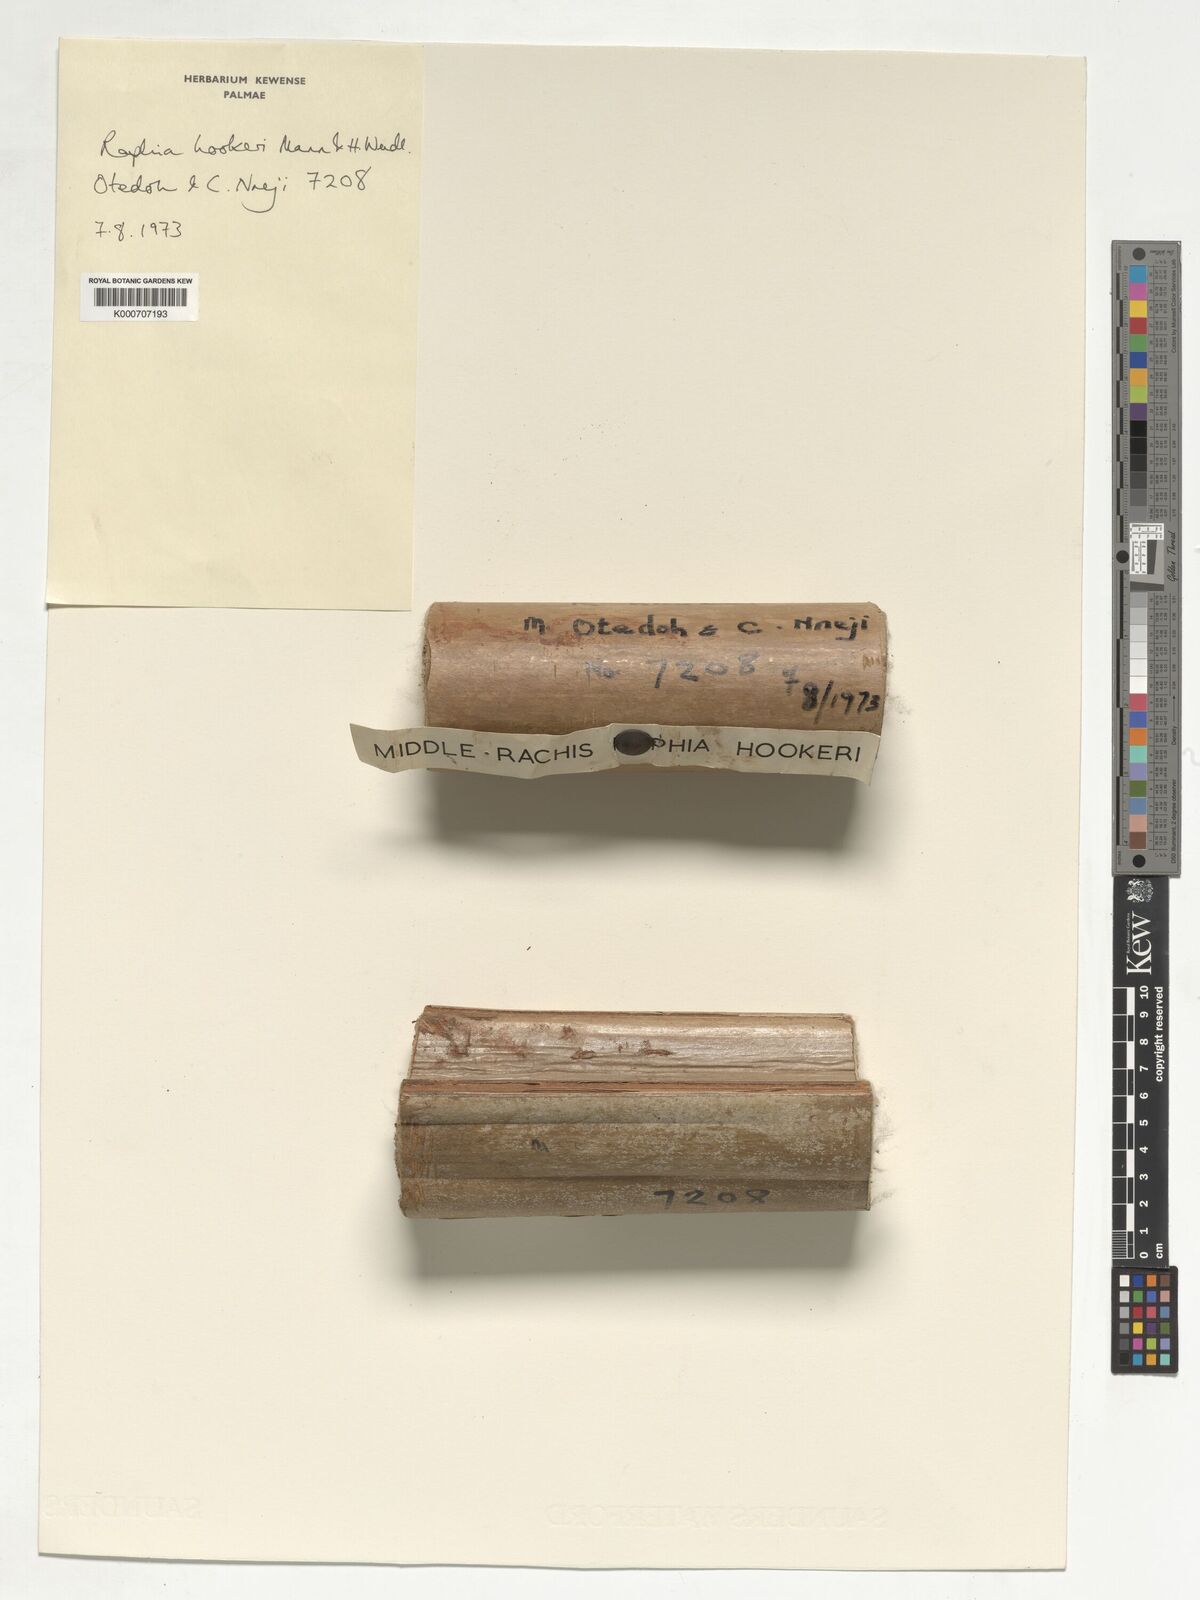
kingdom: Plantae
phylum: Tracheophyta
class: Liliopsida
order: Arecales
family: Arecaceae
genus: Raphia
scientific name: Raphia hookeri
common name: Wine palm
